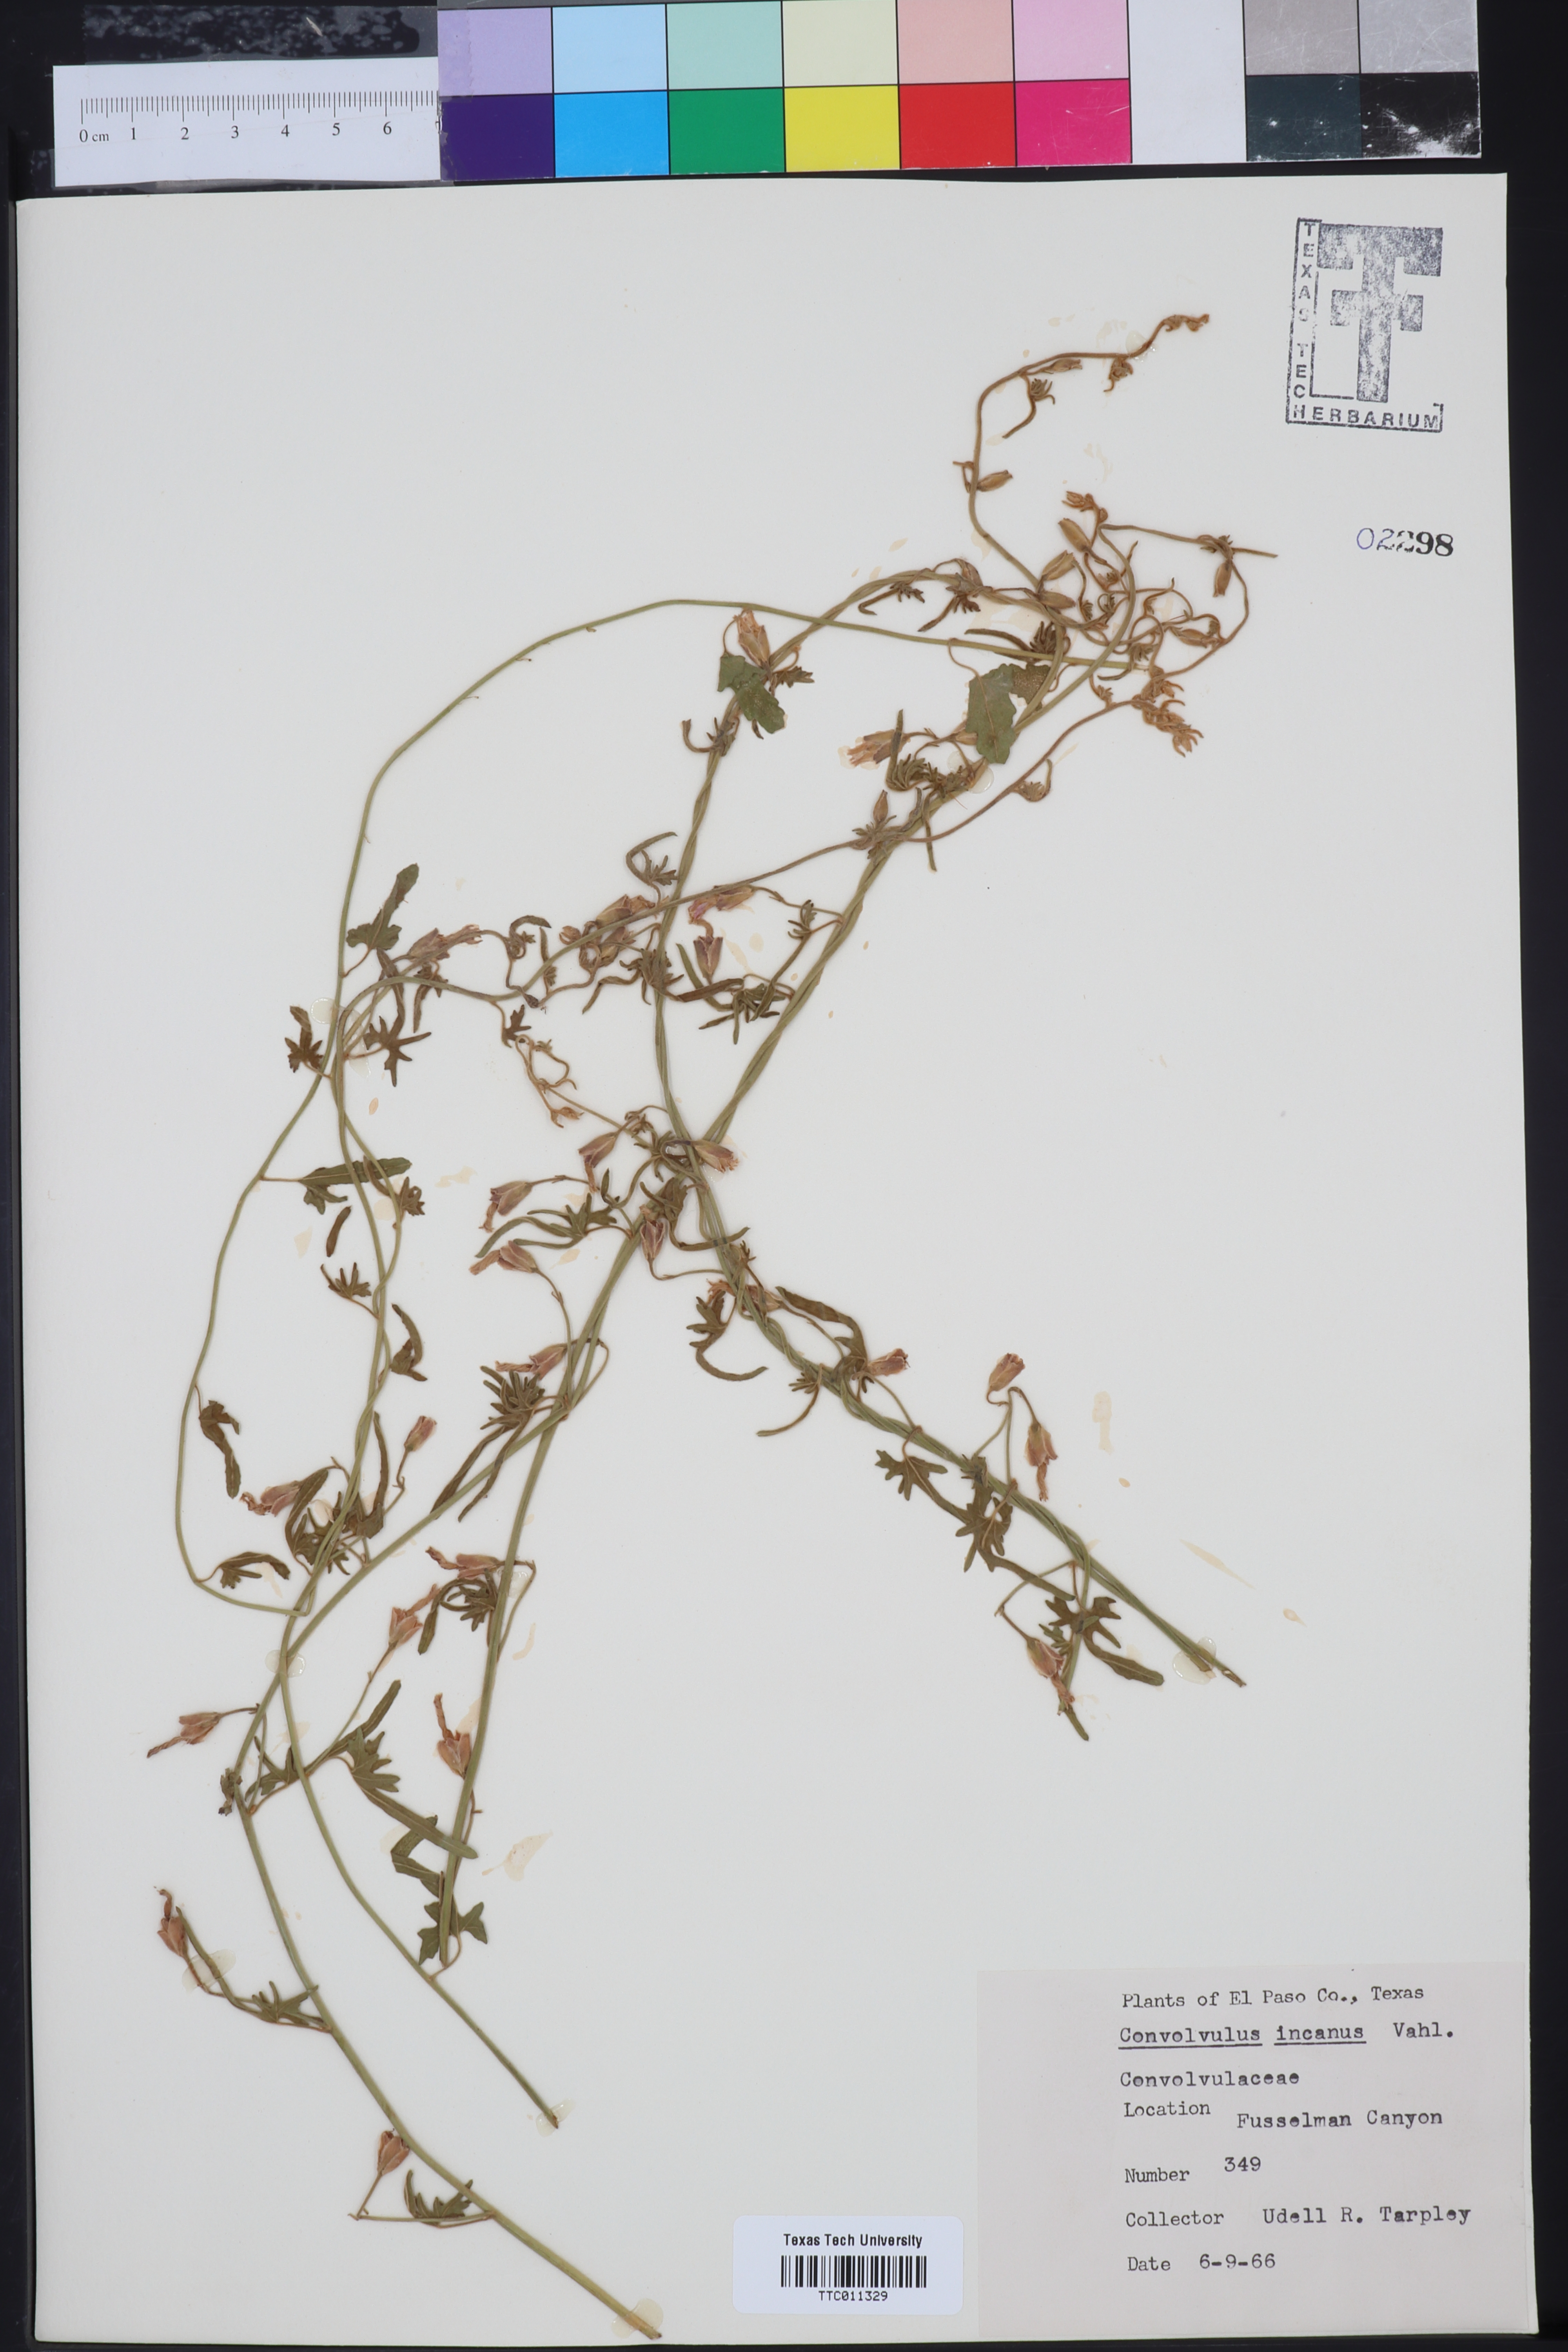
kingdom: Plantae
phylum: Tracheophyta
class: Magnoliopsida
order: Solanales
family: Convolvulaceae
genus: Convolvulus
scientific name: Convolvulus hermanniae
